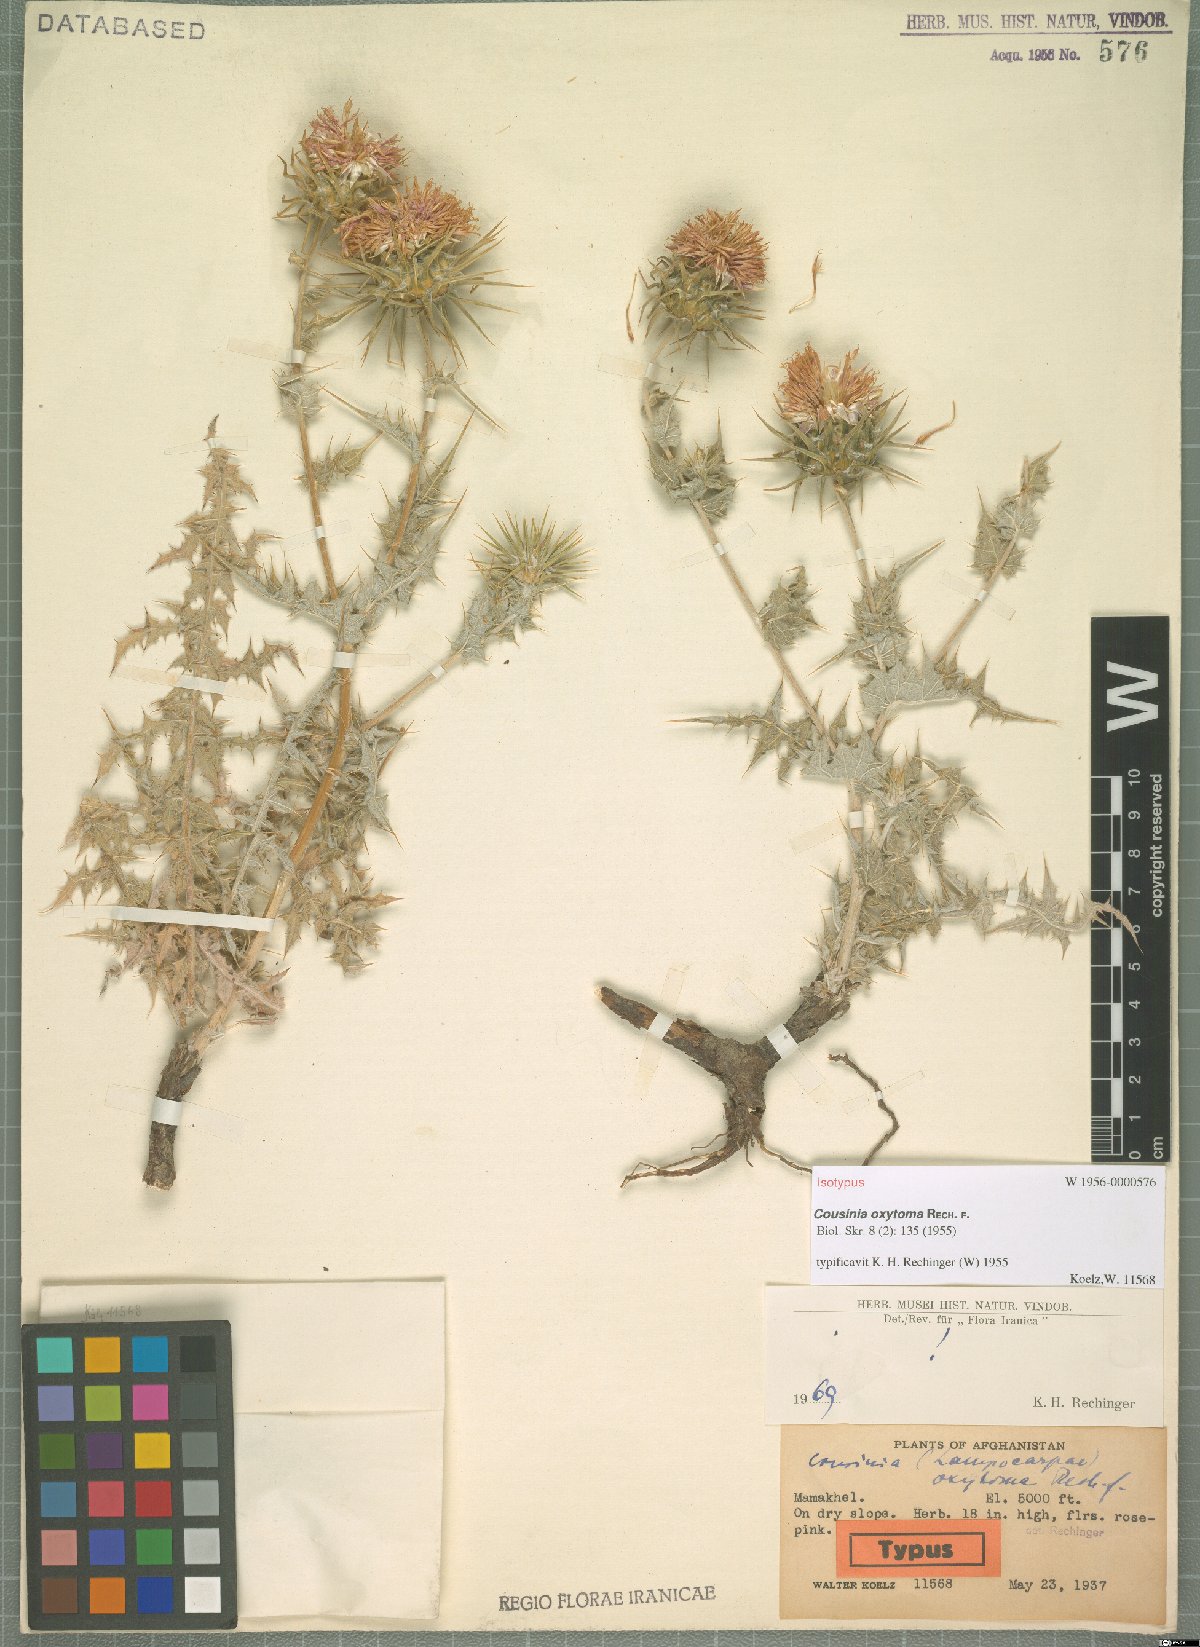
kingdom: Plantae
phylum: Tracheophyta
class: Magnoliopsida
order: Asterales
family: Asteraceae
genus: Cousinia
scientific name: Cousinia oxytoma
